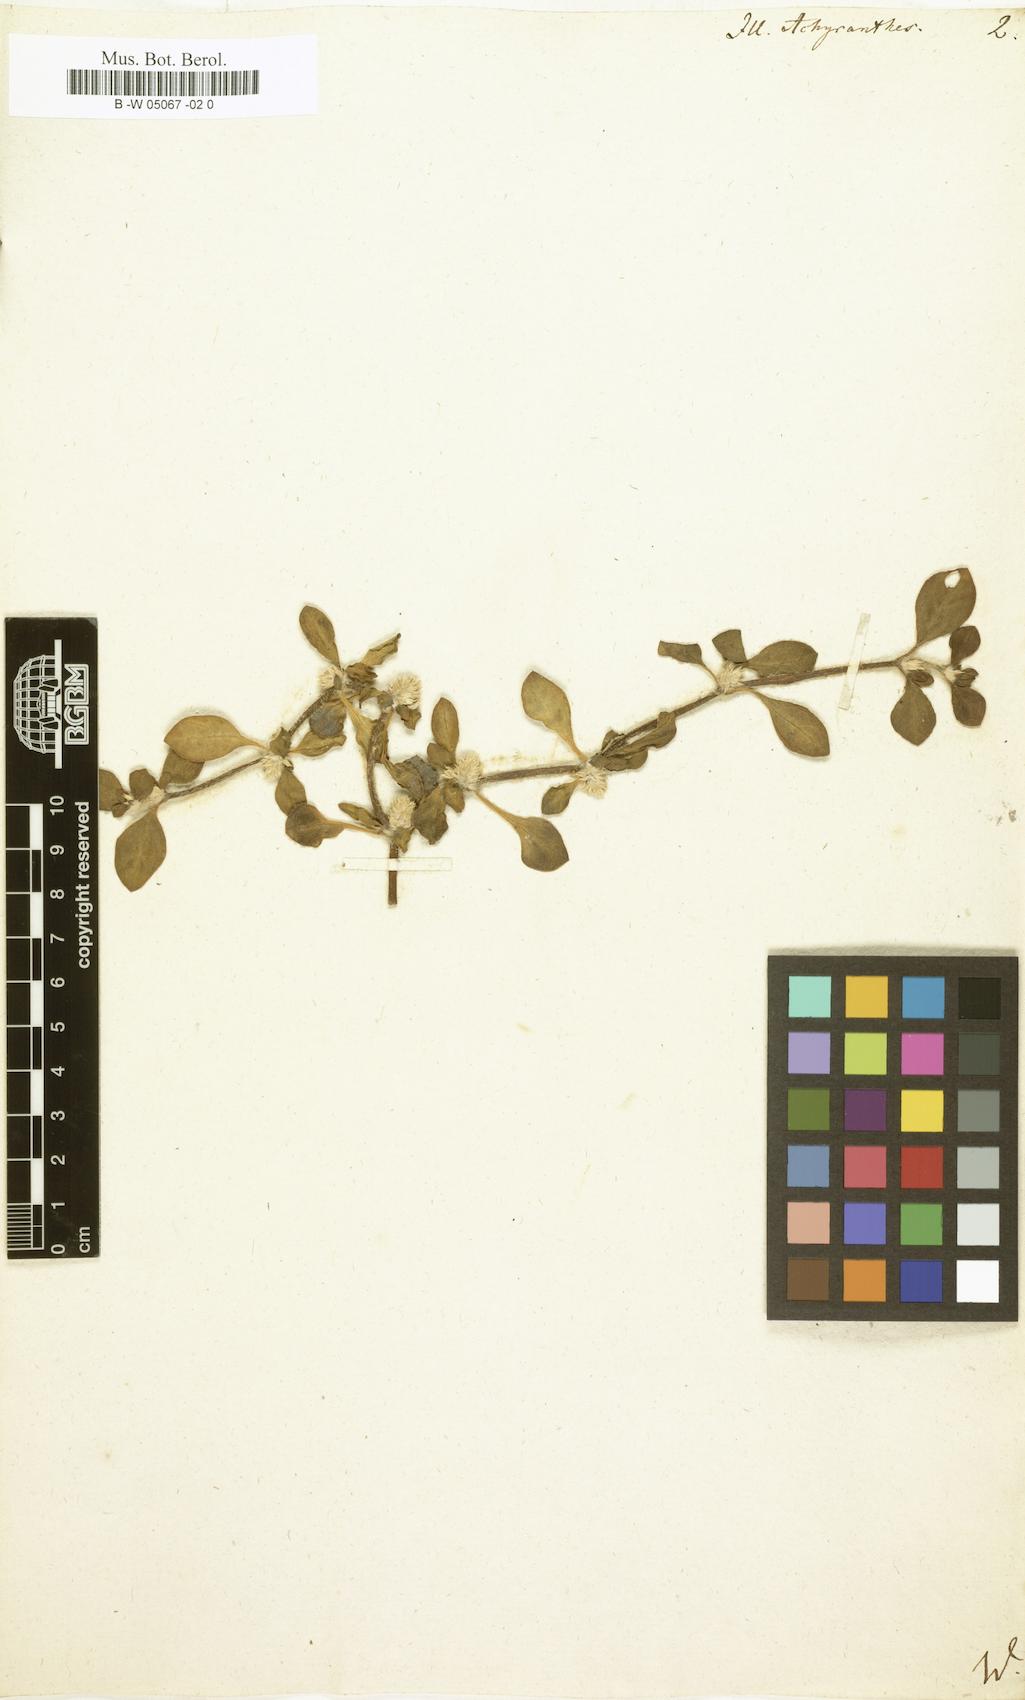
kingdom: Plantae
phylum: Tracheophyta
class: Magnoliopsida
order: Caryophyllales
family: Amaranthaceae
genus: Alternanthera
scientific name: Alternanthera pungens
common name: Khakiweed
